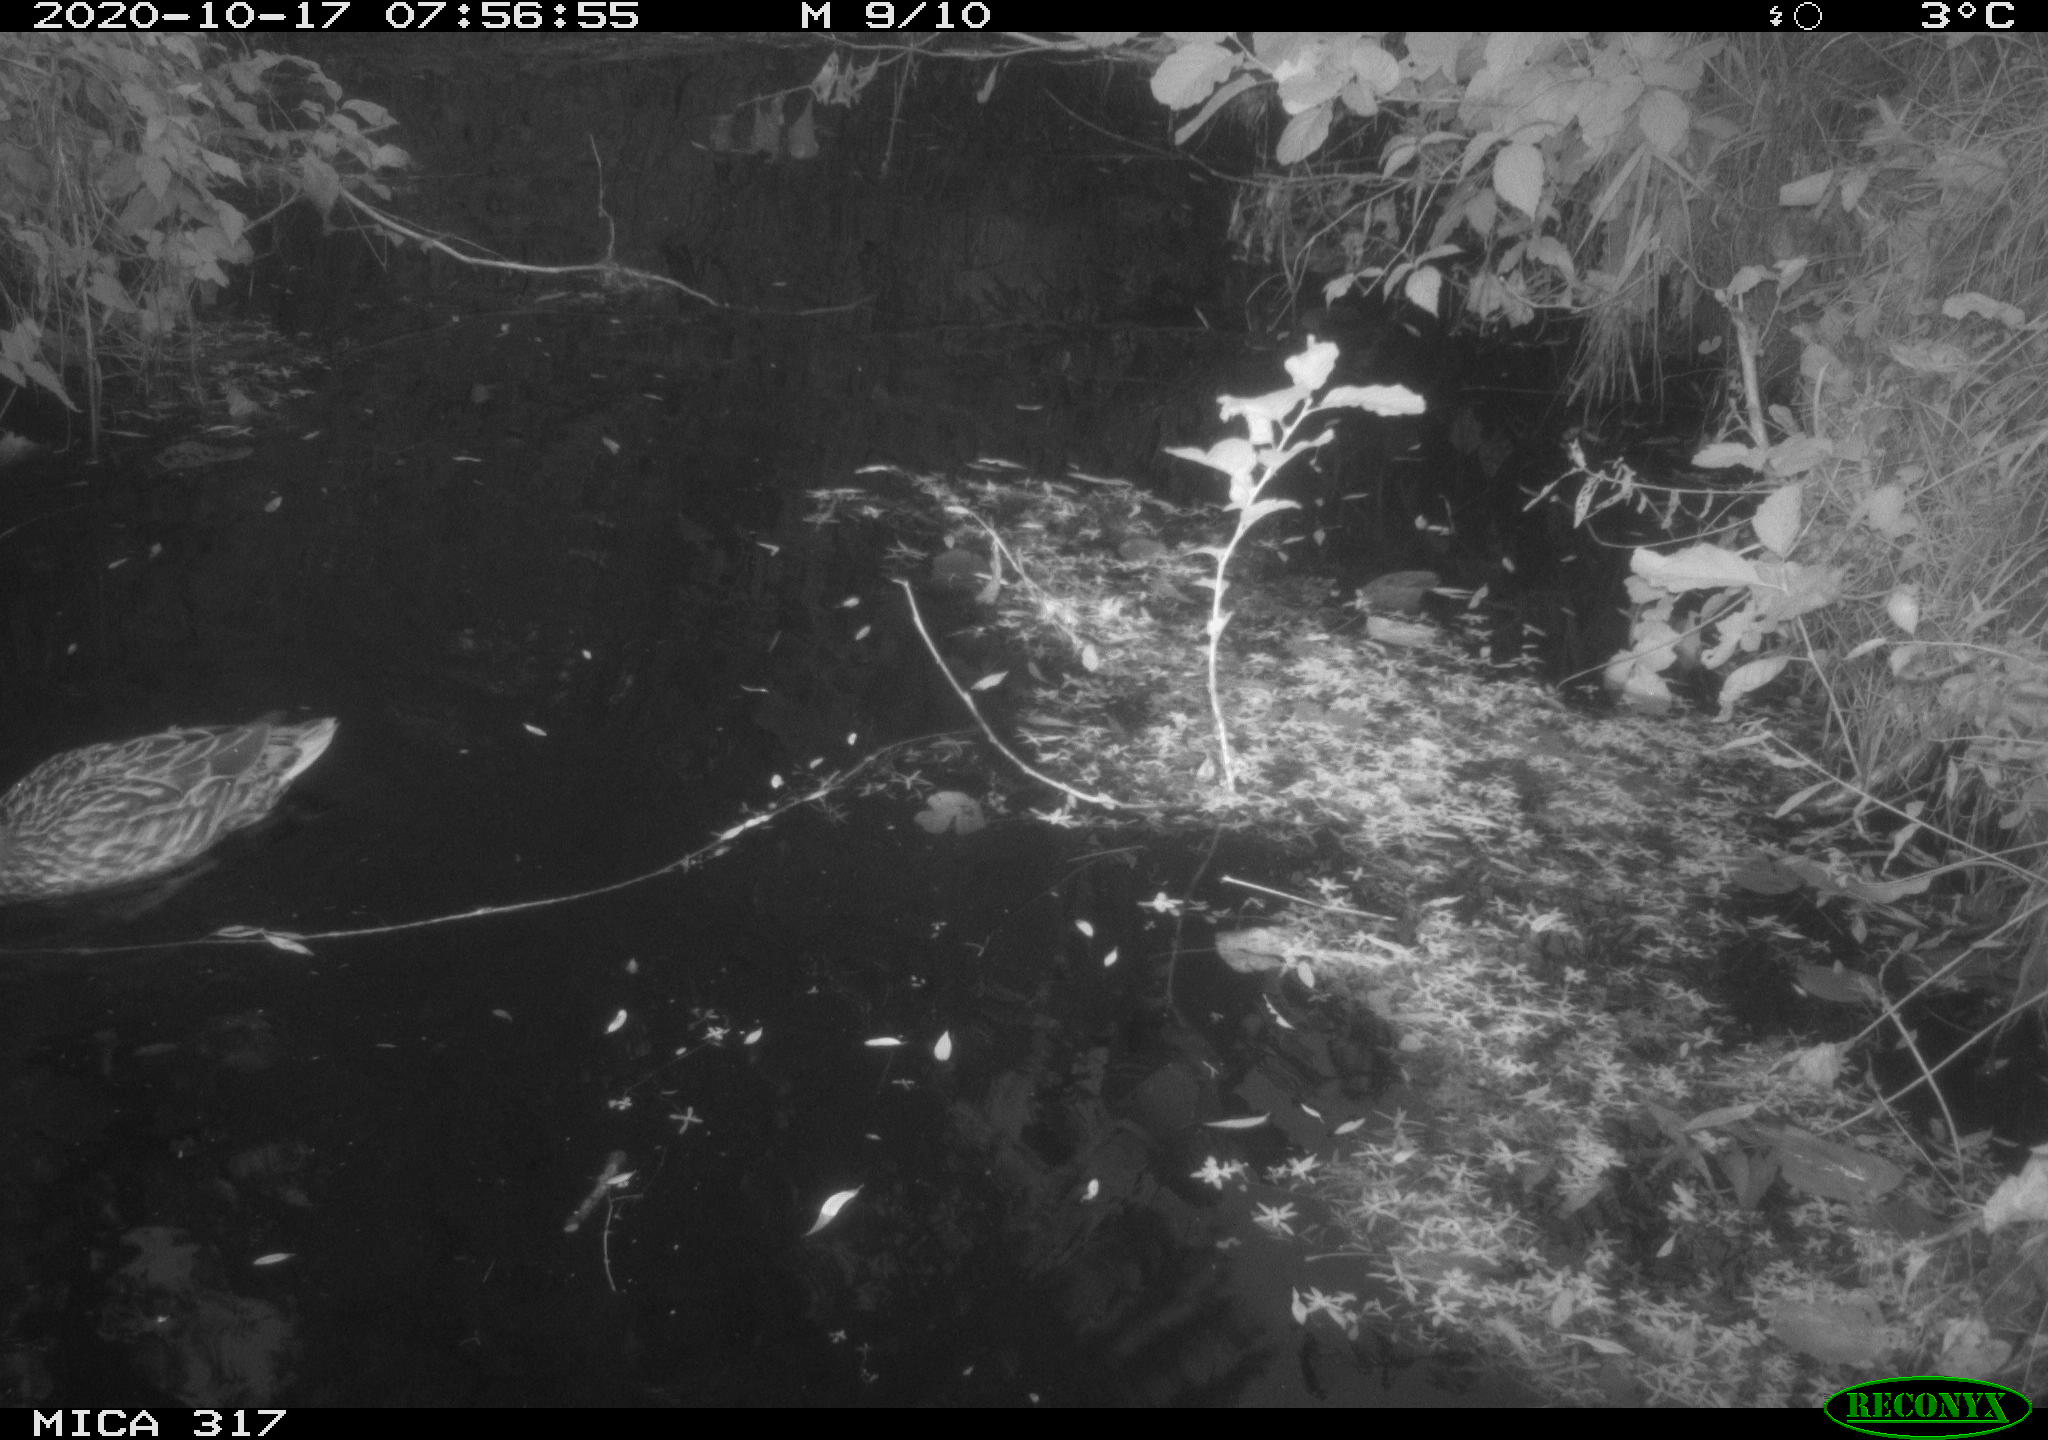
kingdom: Animalia
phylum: Chordata
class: Aves
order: Anseriformes
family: Anatidae
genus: Anas
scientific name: Anas platyrhynchos
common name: Mallard
